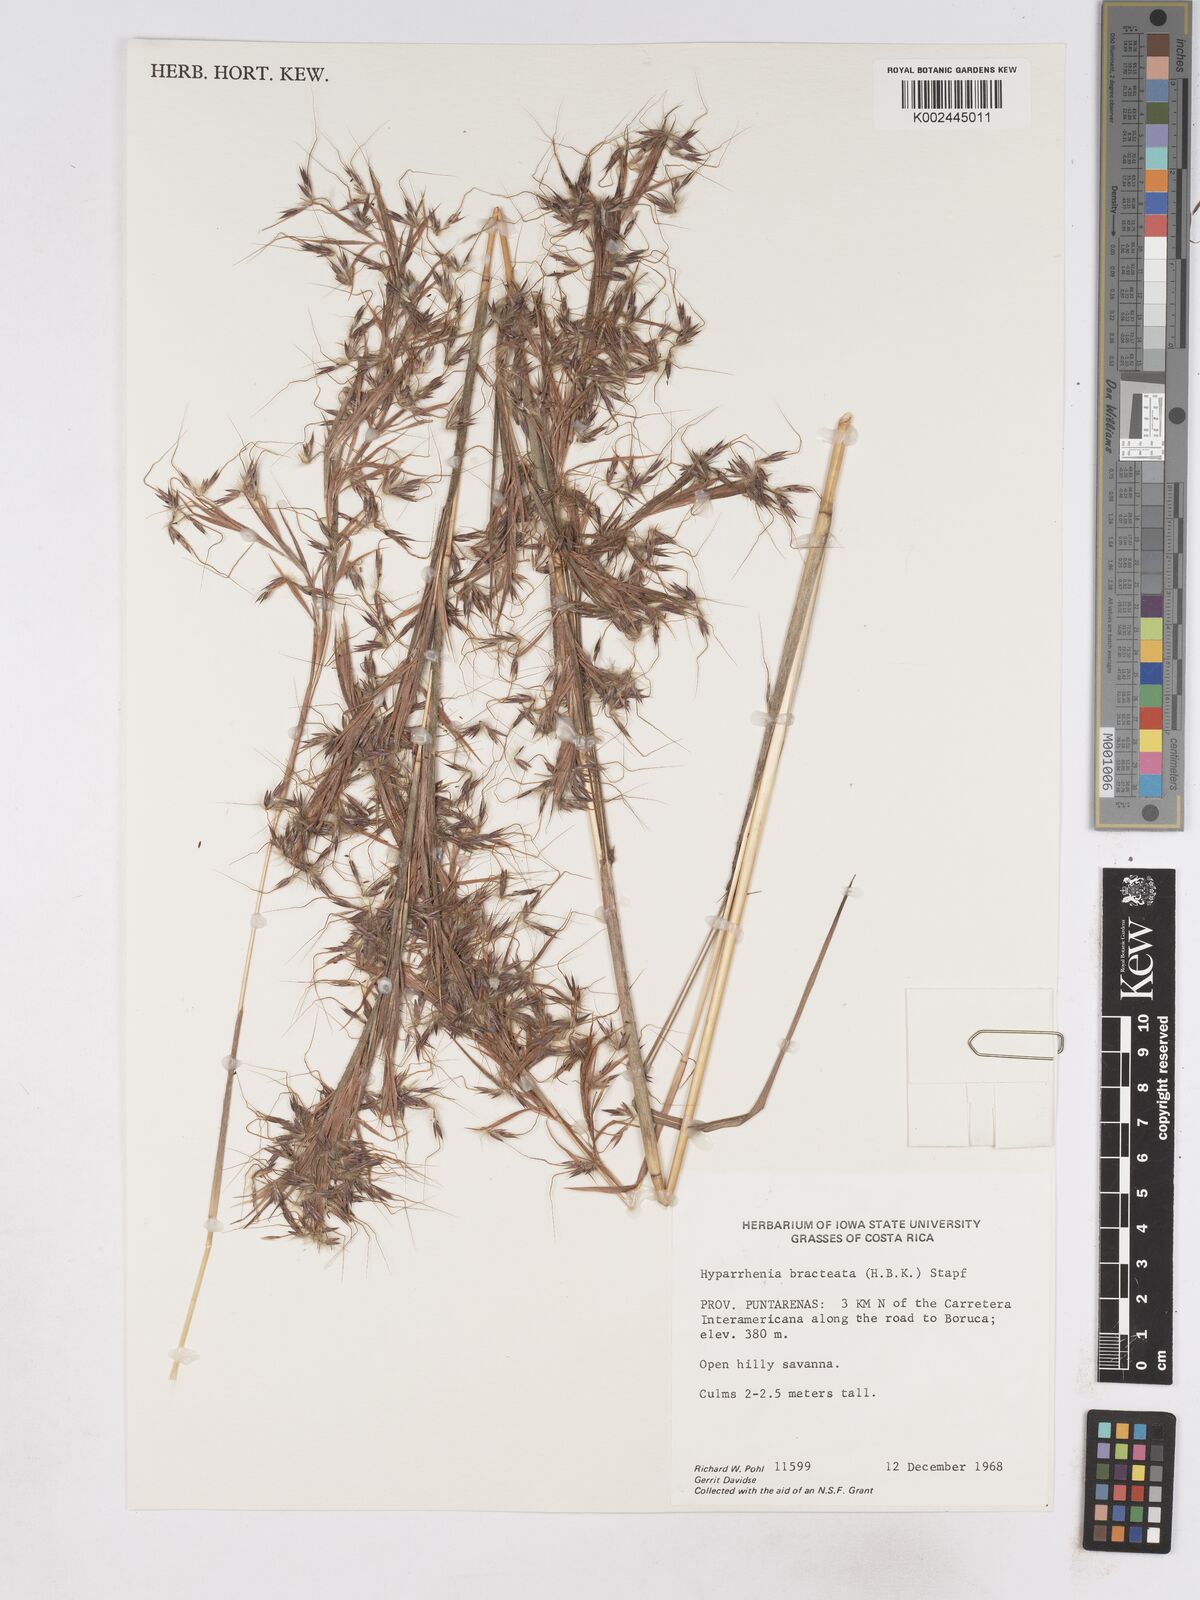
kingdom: Plantae
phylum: Tracheophyta
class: Liliopsida
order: Poales
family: Poaceae
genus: Hyparrhenia
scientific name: Hyparrhenia bracteata
